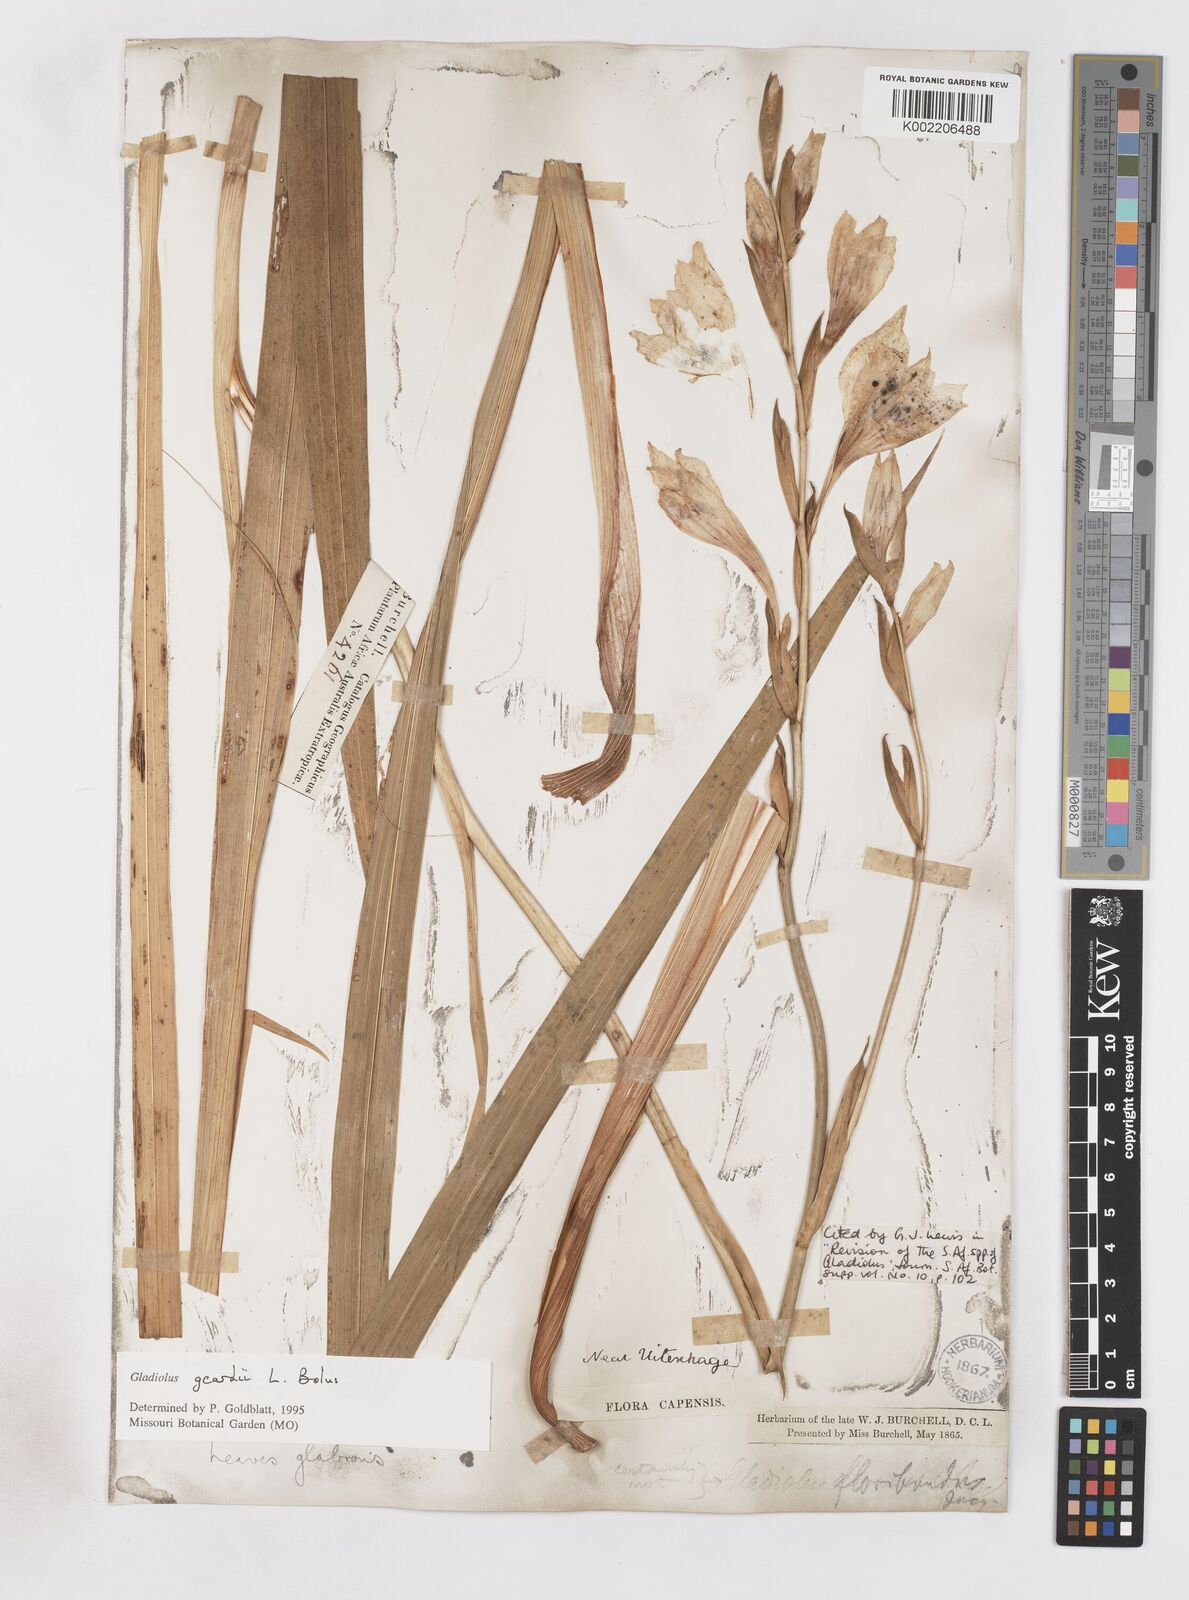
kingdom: Plantae
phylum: Tracheophyta
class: Liliopsida
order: Asparagales
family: Iridaceae
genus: Gladiolus
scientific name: Gladiolus geardii
